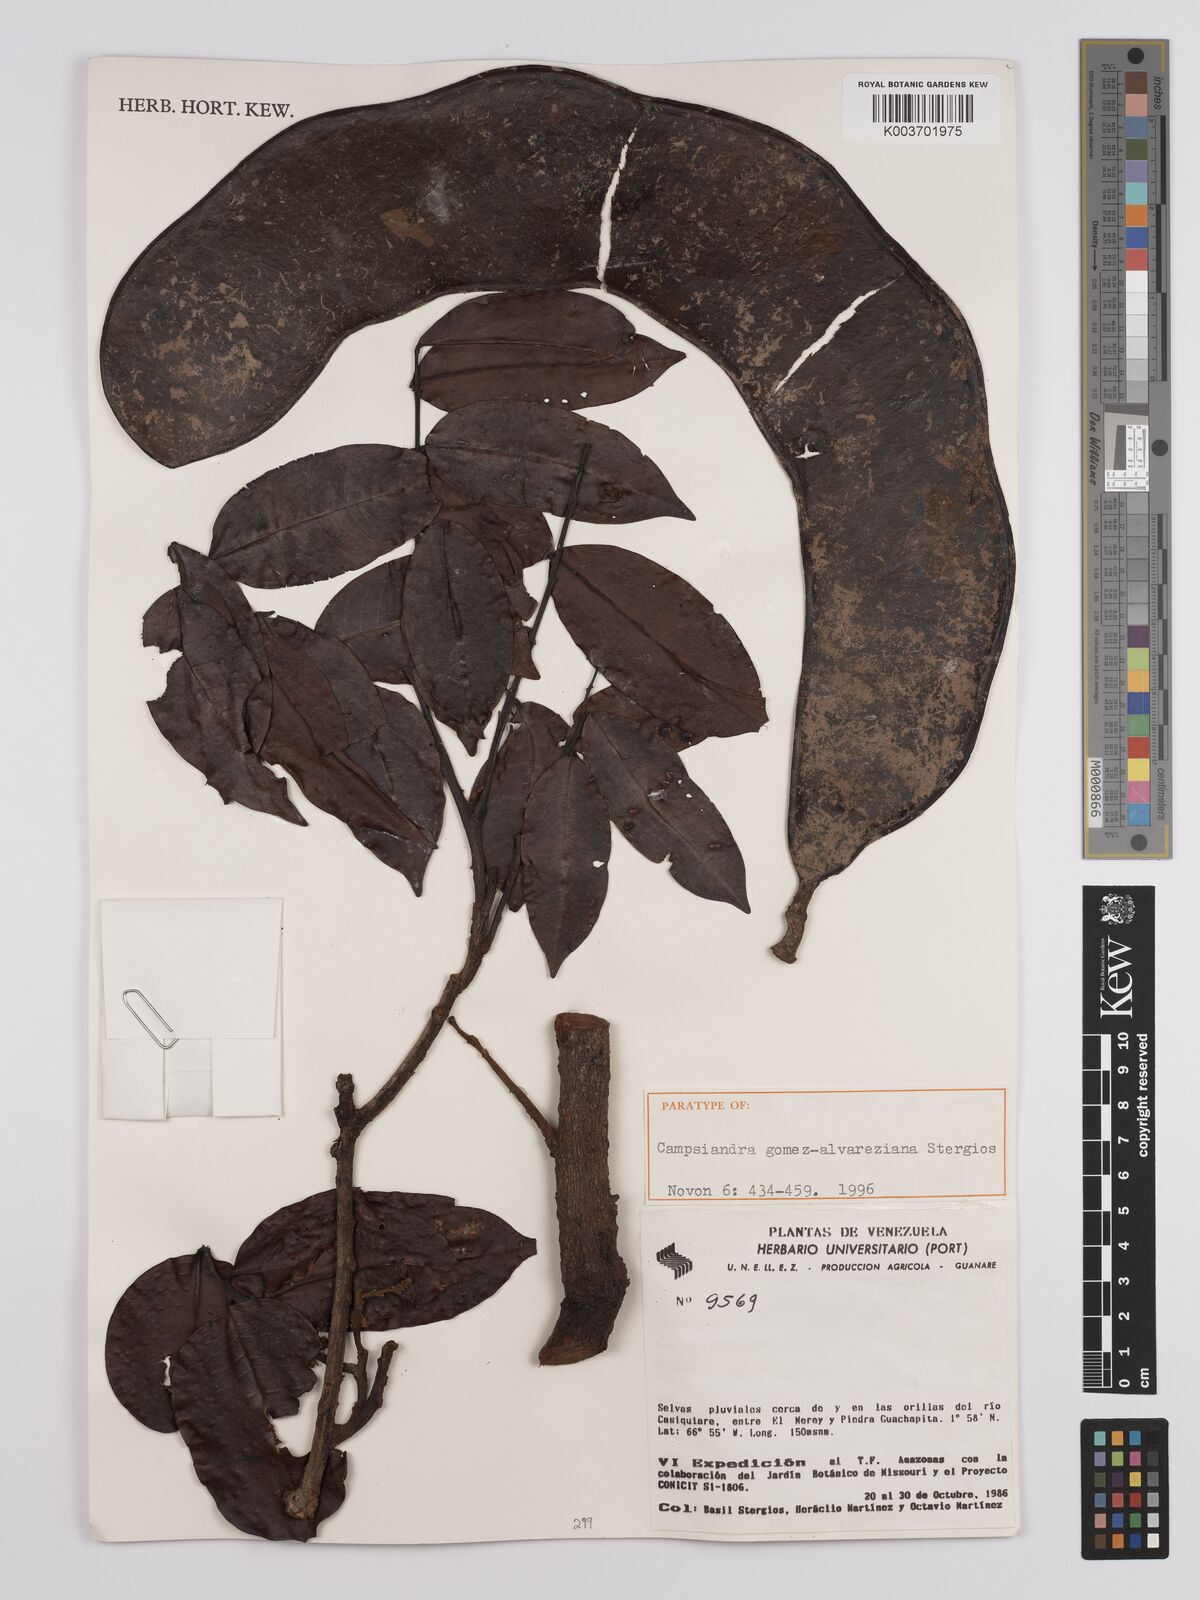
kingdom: Plantae
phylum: Tracheophyta
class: Magnoliopsida
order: Fabales
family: Fabaceae
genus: Campsiandra
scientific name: Campsiandra gomez-alvareziana
